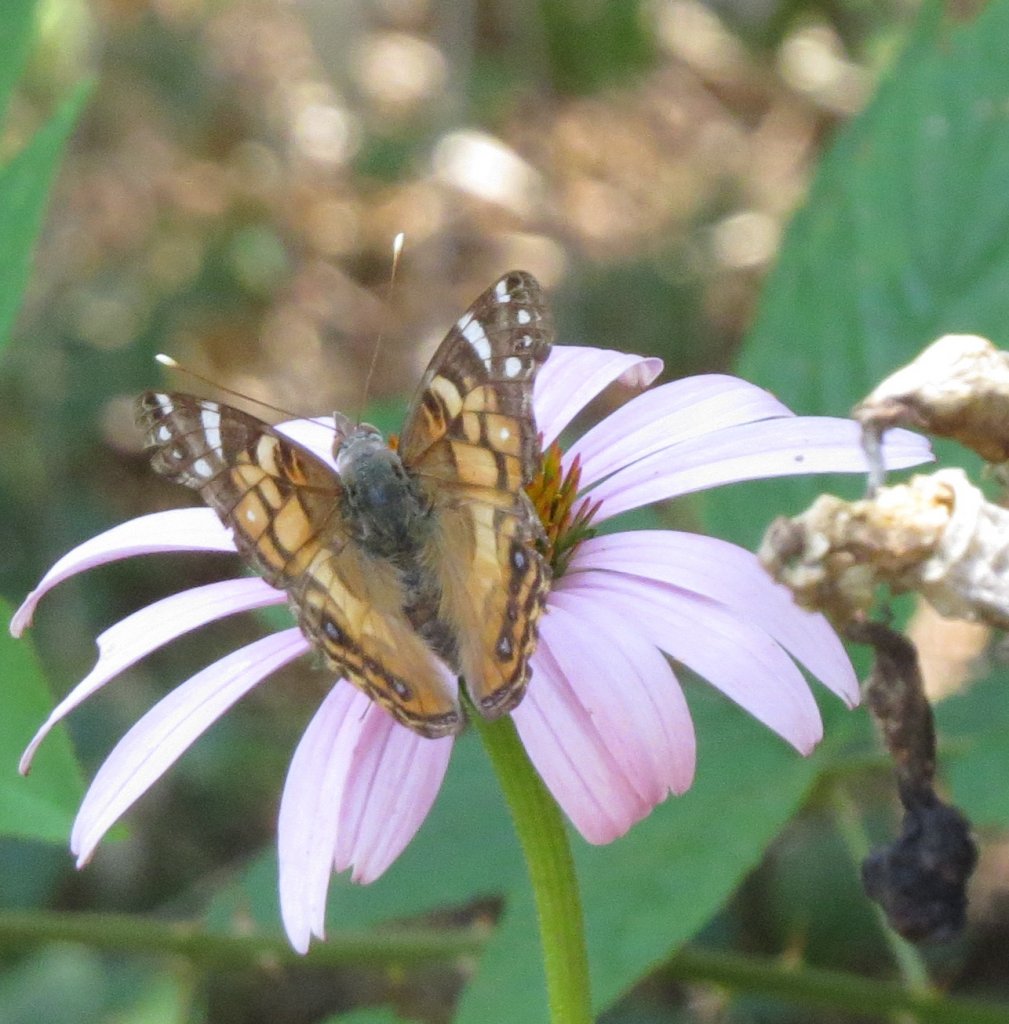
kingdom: Animalia
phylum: Arthropoda
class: Insecta
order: Lepidoptera
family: Nymphalidae
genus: Vanessa
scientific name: Vanessa virginiensis
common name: American Lady
